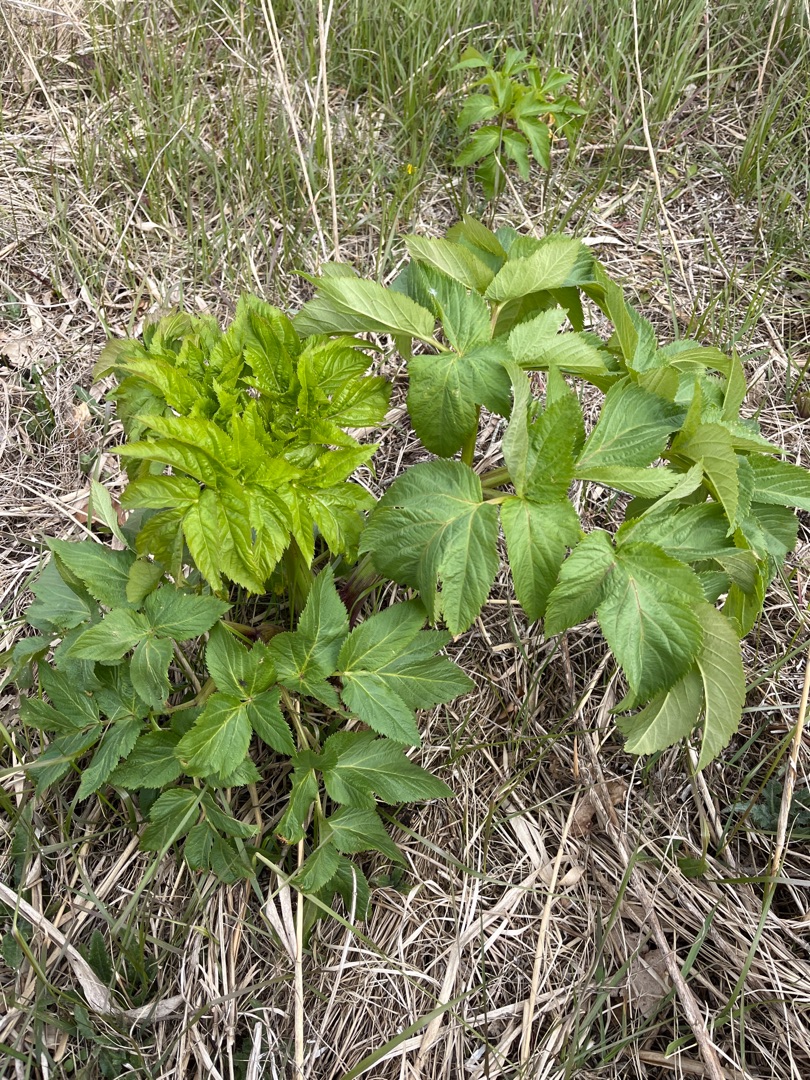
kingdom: Plantae
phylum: Tracheophyta
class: Magnoliopsida
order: Apiales
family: Apiaceae
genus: Angelica
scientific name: Angelica archangelica
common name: Kvan
